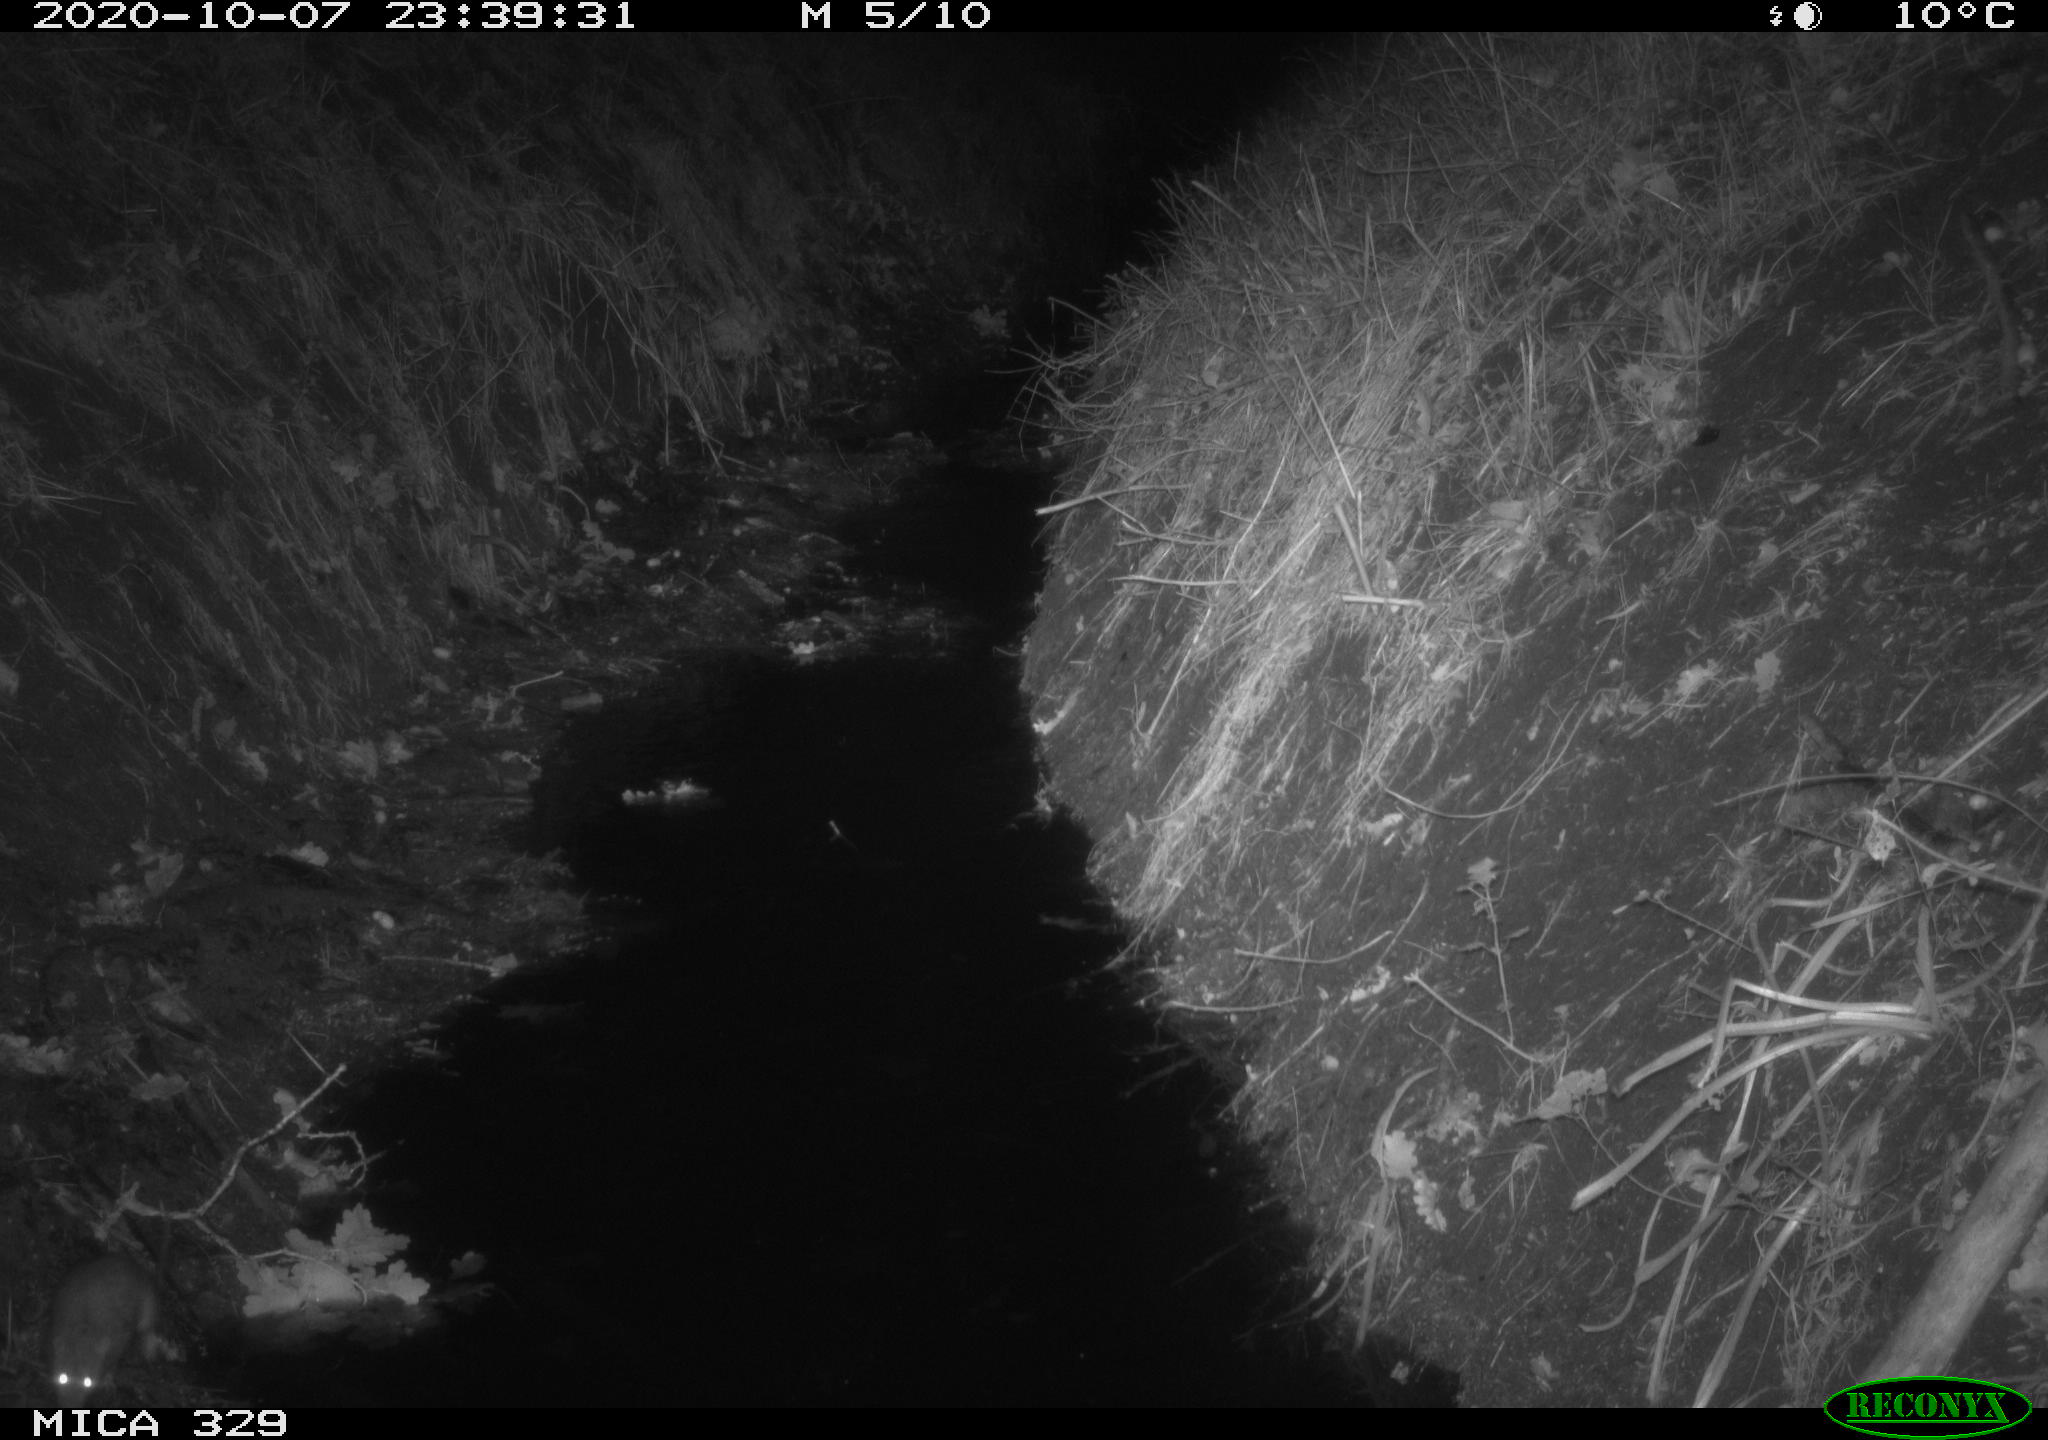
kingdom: Animalia
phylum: Chordata
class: Mammalia
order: Rodentia
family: Muridae
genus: Rattus
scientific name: Rattus norvegicus
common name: Brown rat
